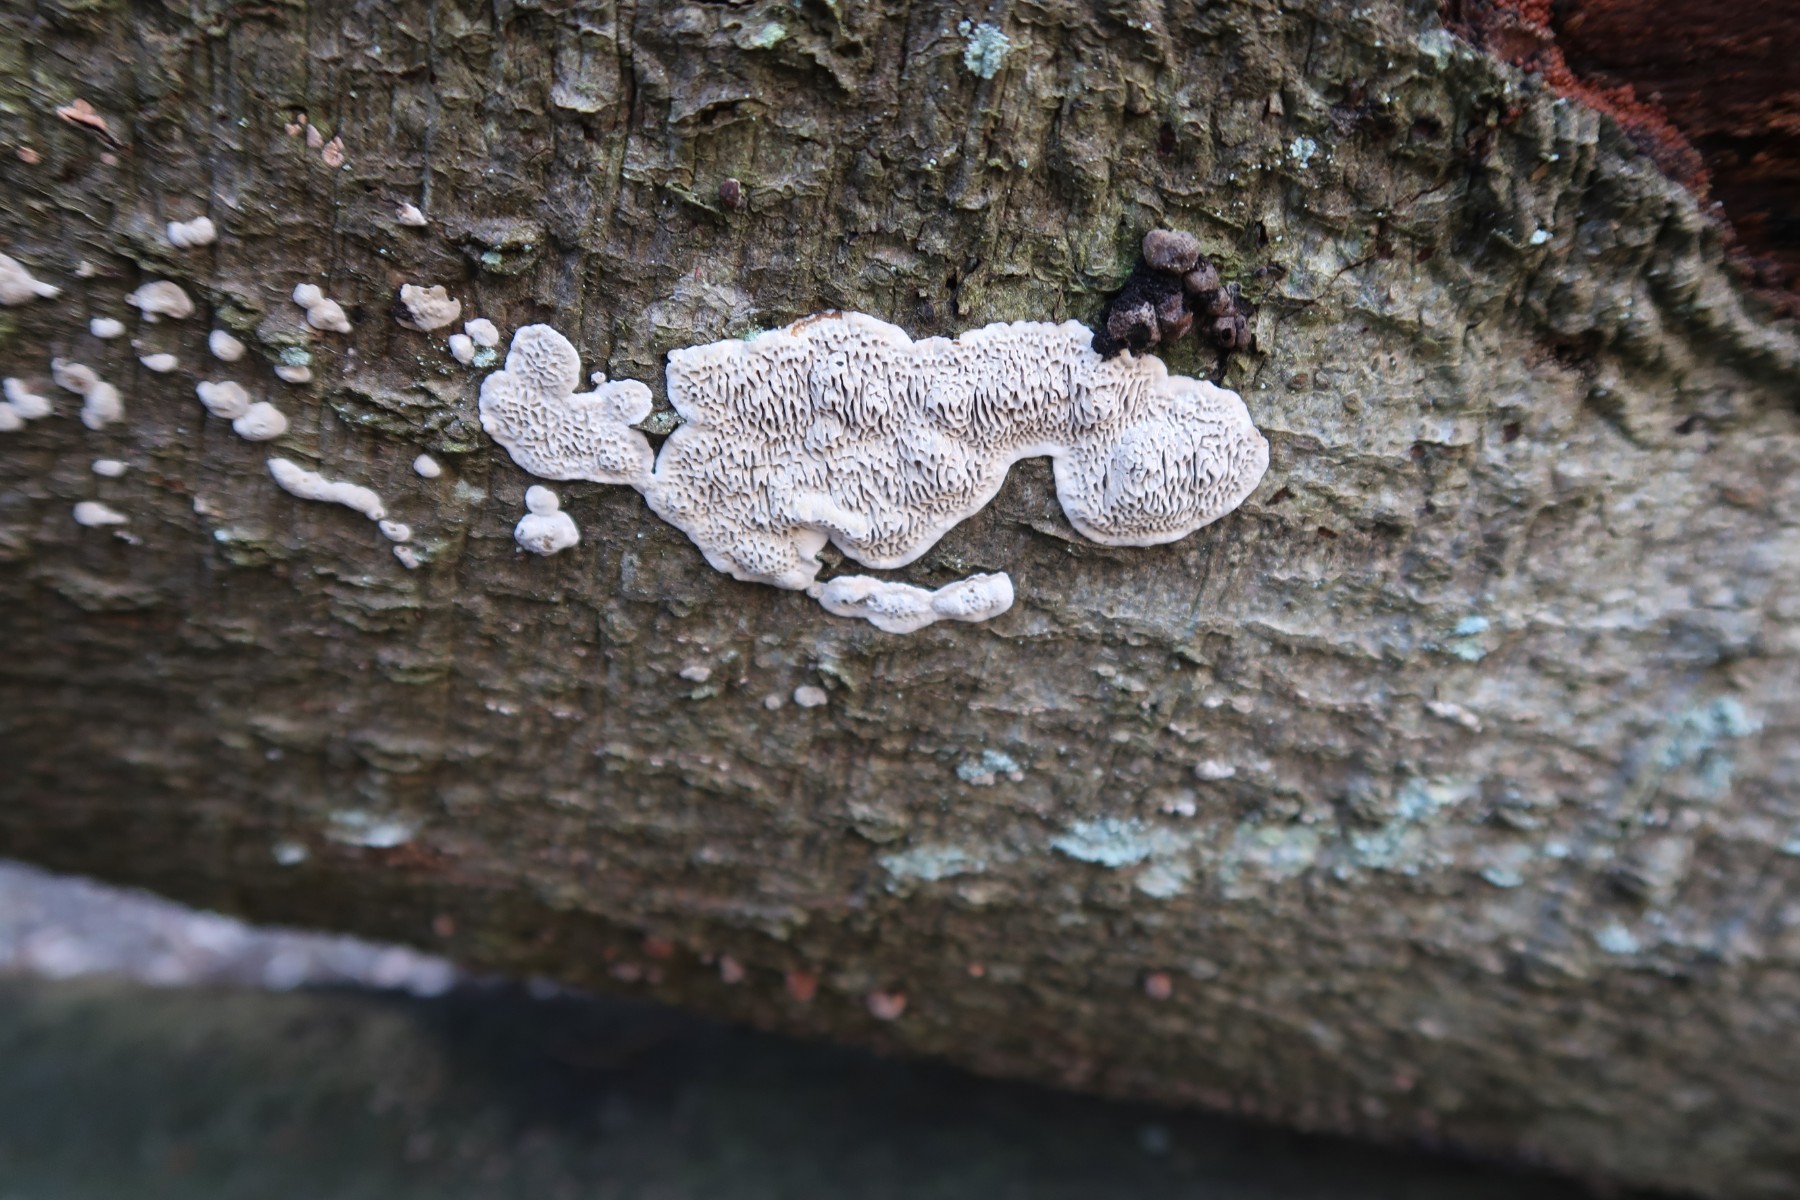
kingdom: Fungi
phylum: Basidiomycota
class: Agaricomycetes
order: Polyporales
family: Polyporaceae
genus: Podofomes
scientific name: Podofomes mollis
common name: blød begporesvamp
